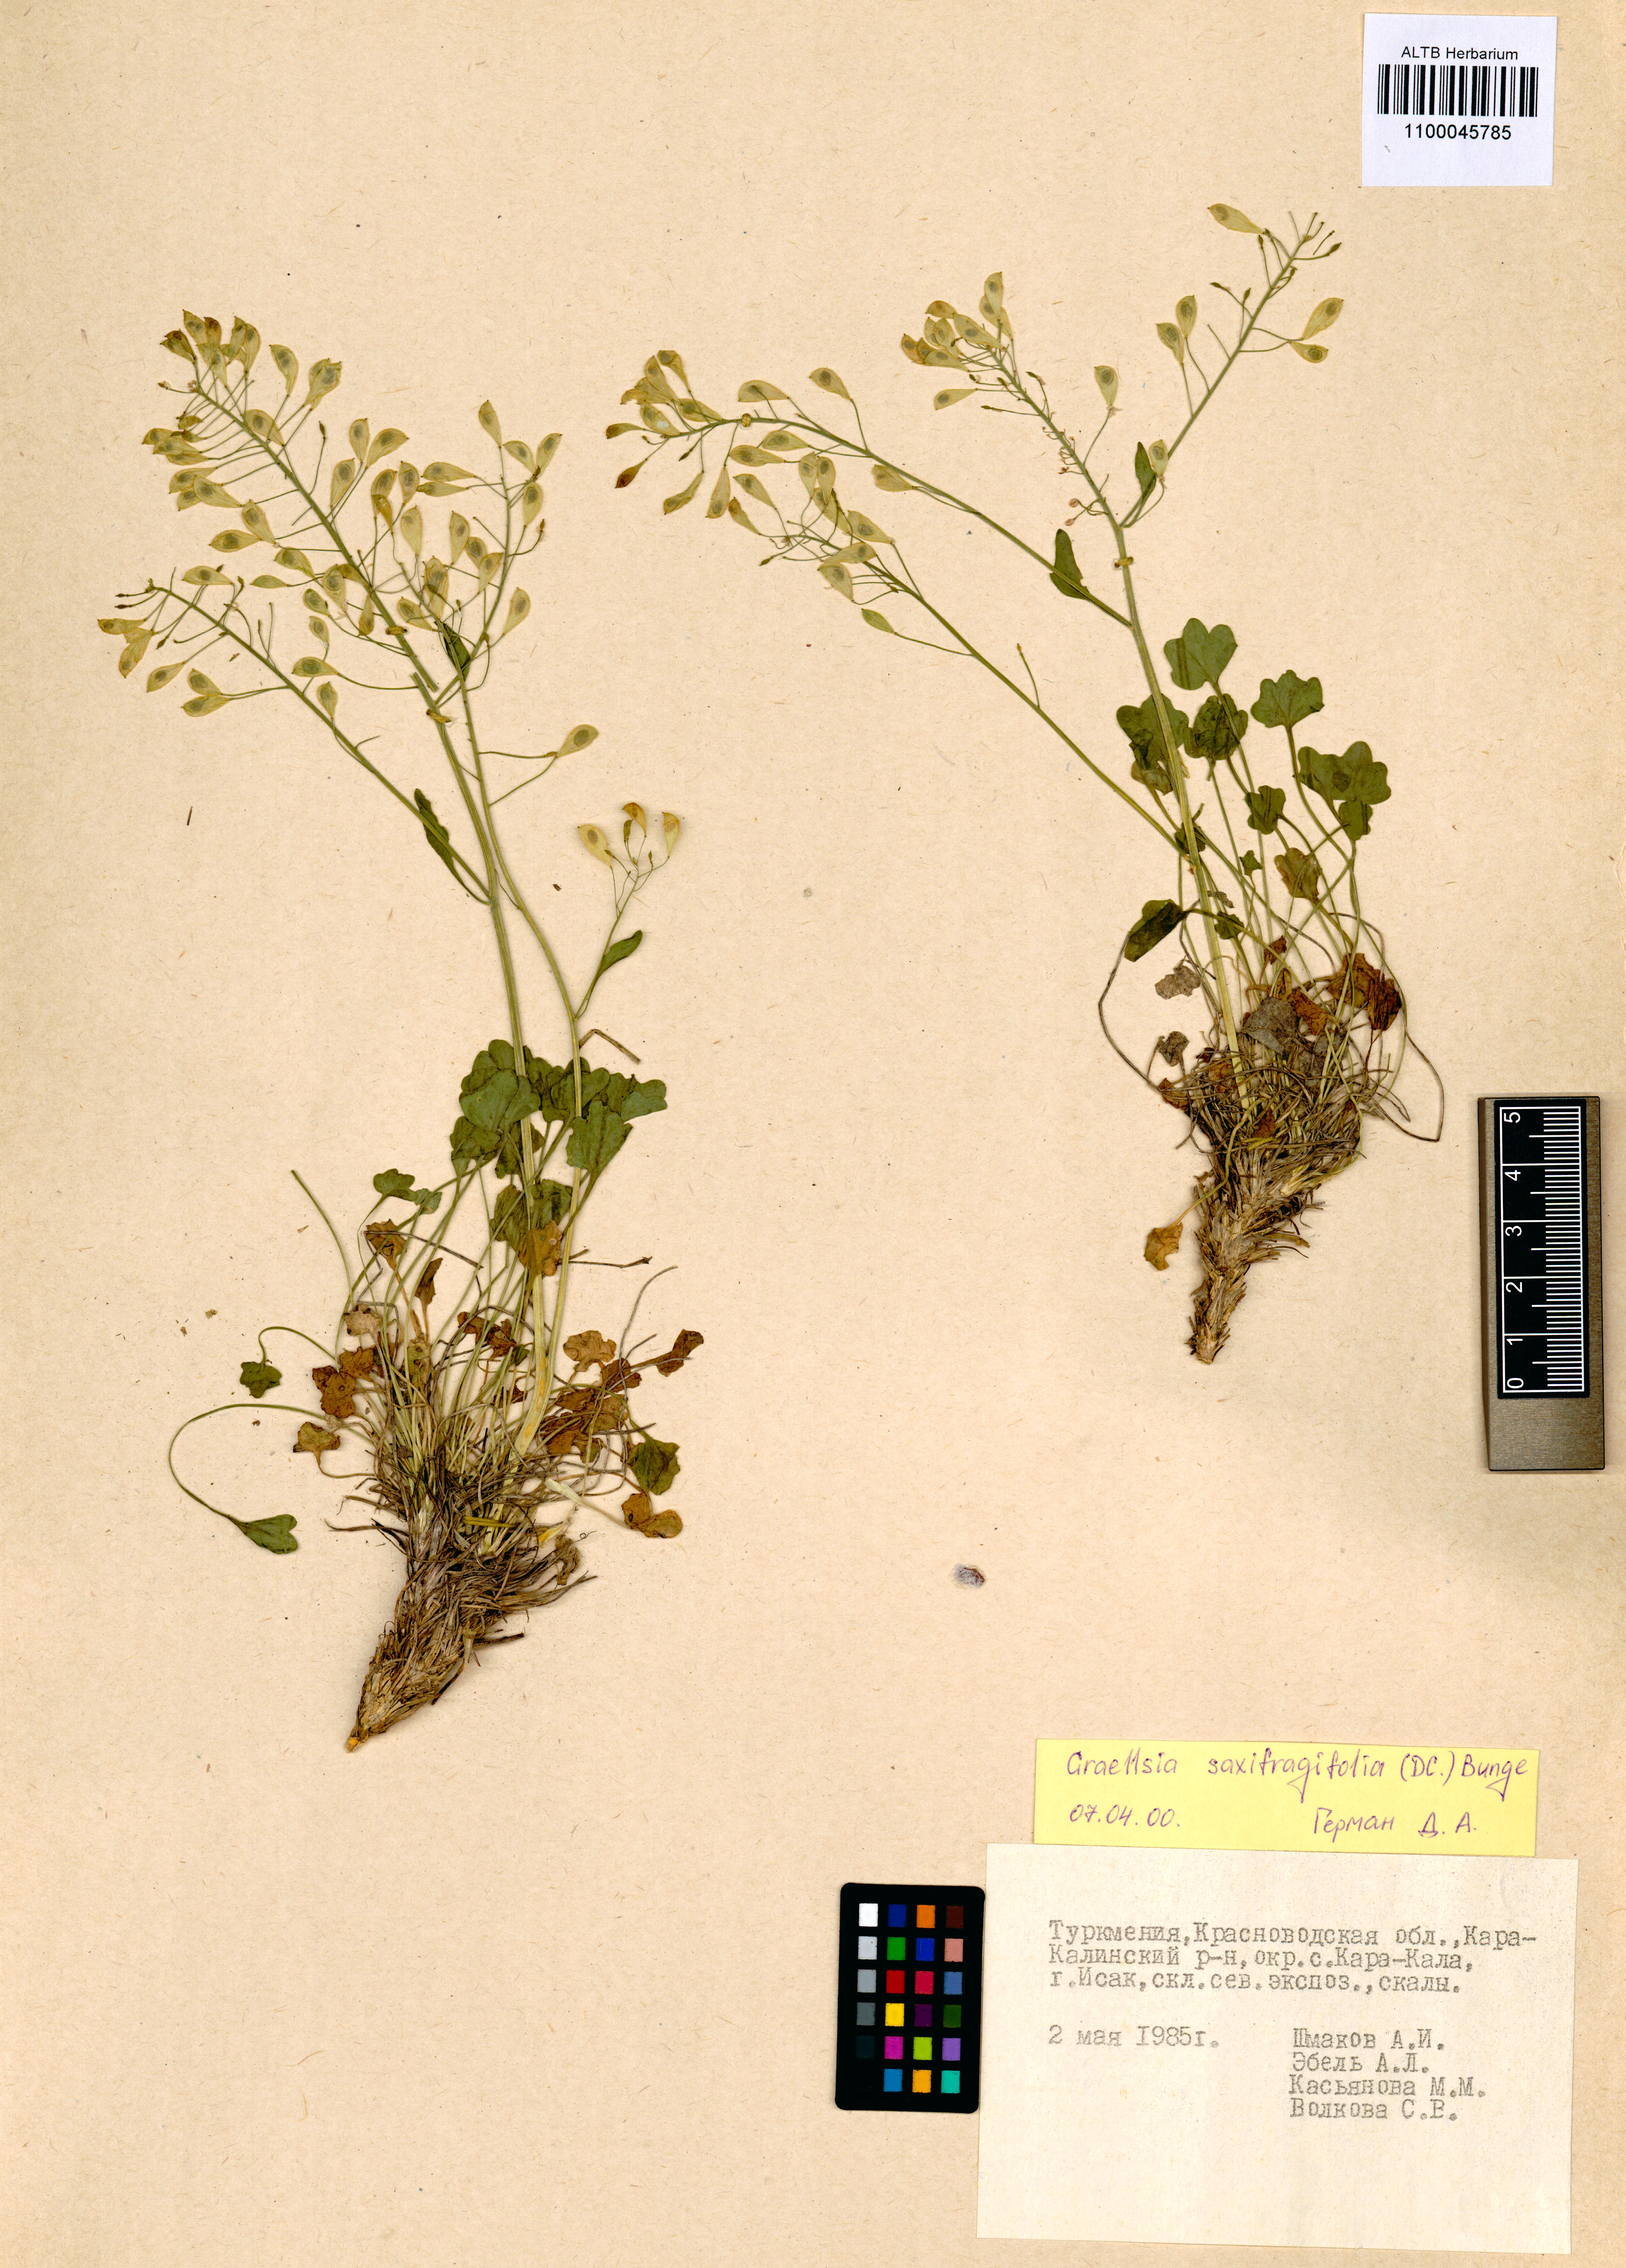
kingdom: Plantae
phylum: Tracheophyta
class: Magnoliopsida
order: Brassicales
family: Brassicaceae
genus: Graellsia
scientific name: Graellsia saxifragifolia
